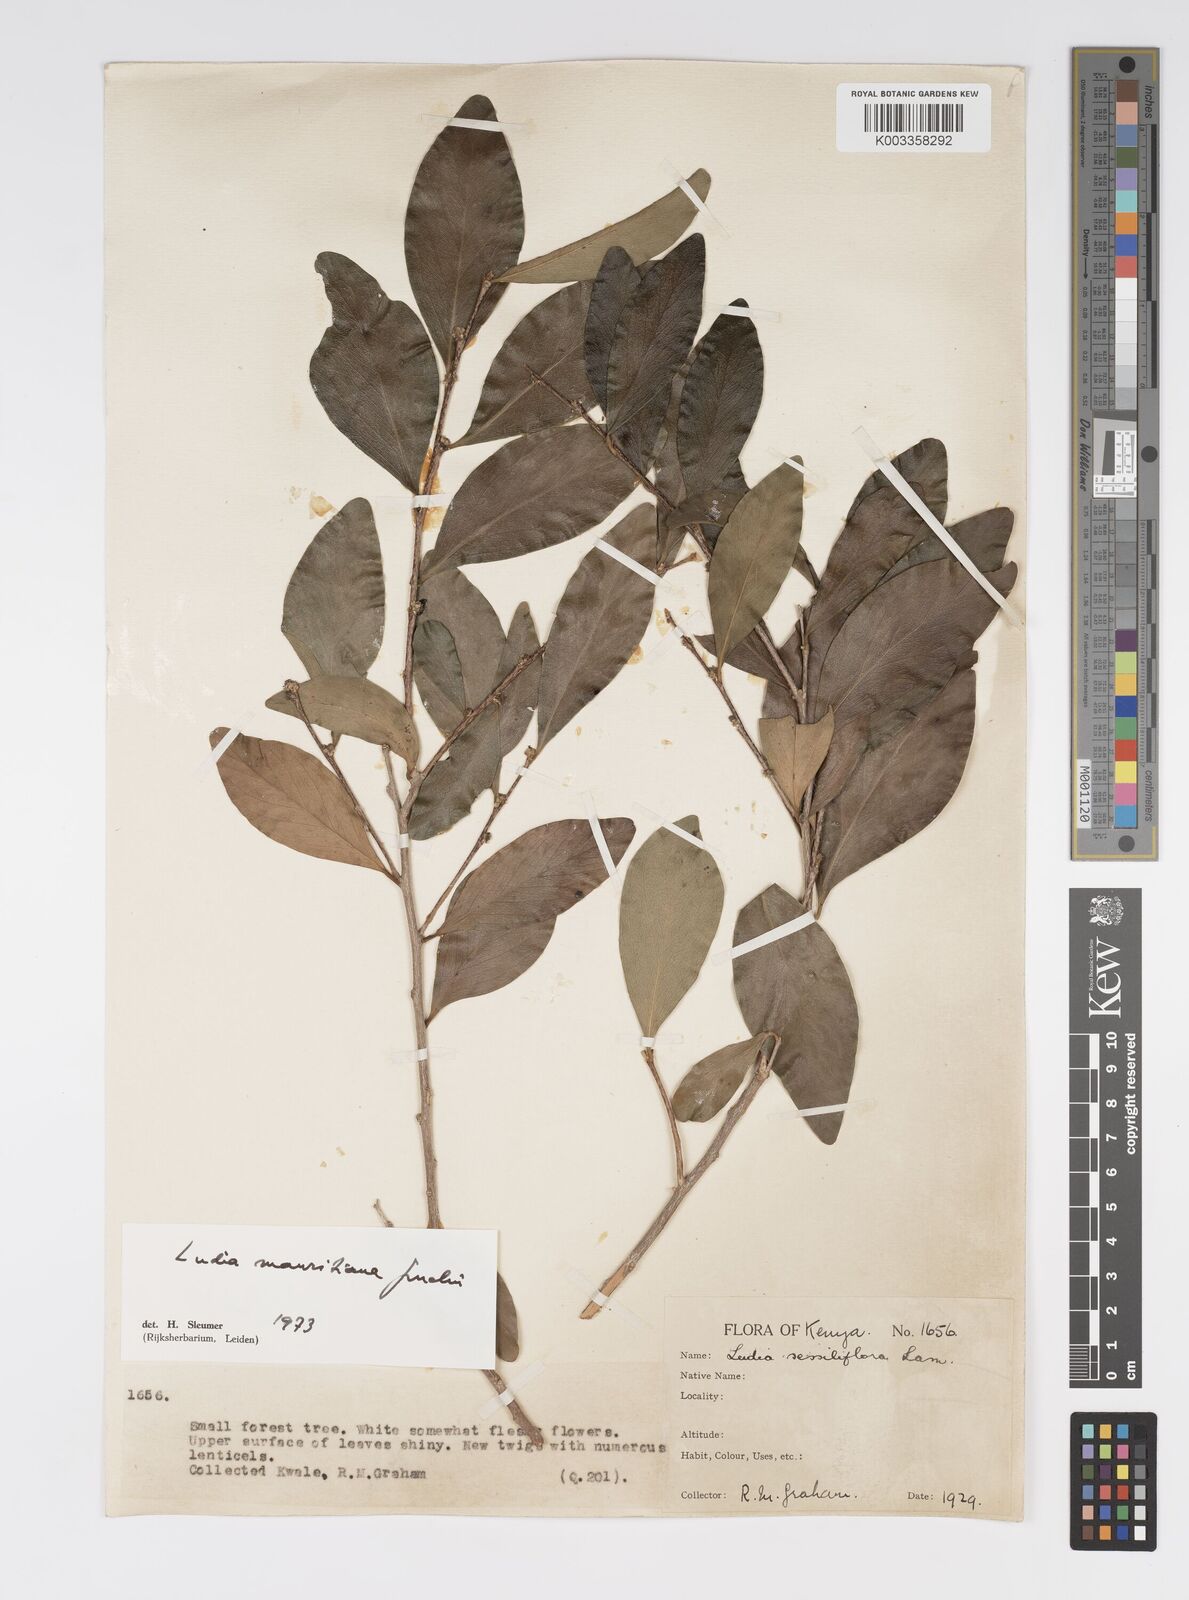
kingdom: Plantae
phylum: Tracheophyta
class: Magnoliopsida
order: Malpighiales
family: Salicaceae
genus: Ludia
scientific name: Ludia mauritiana
